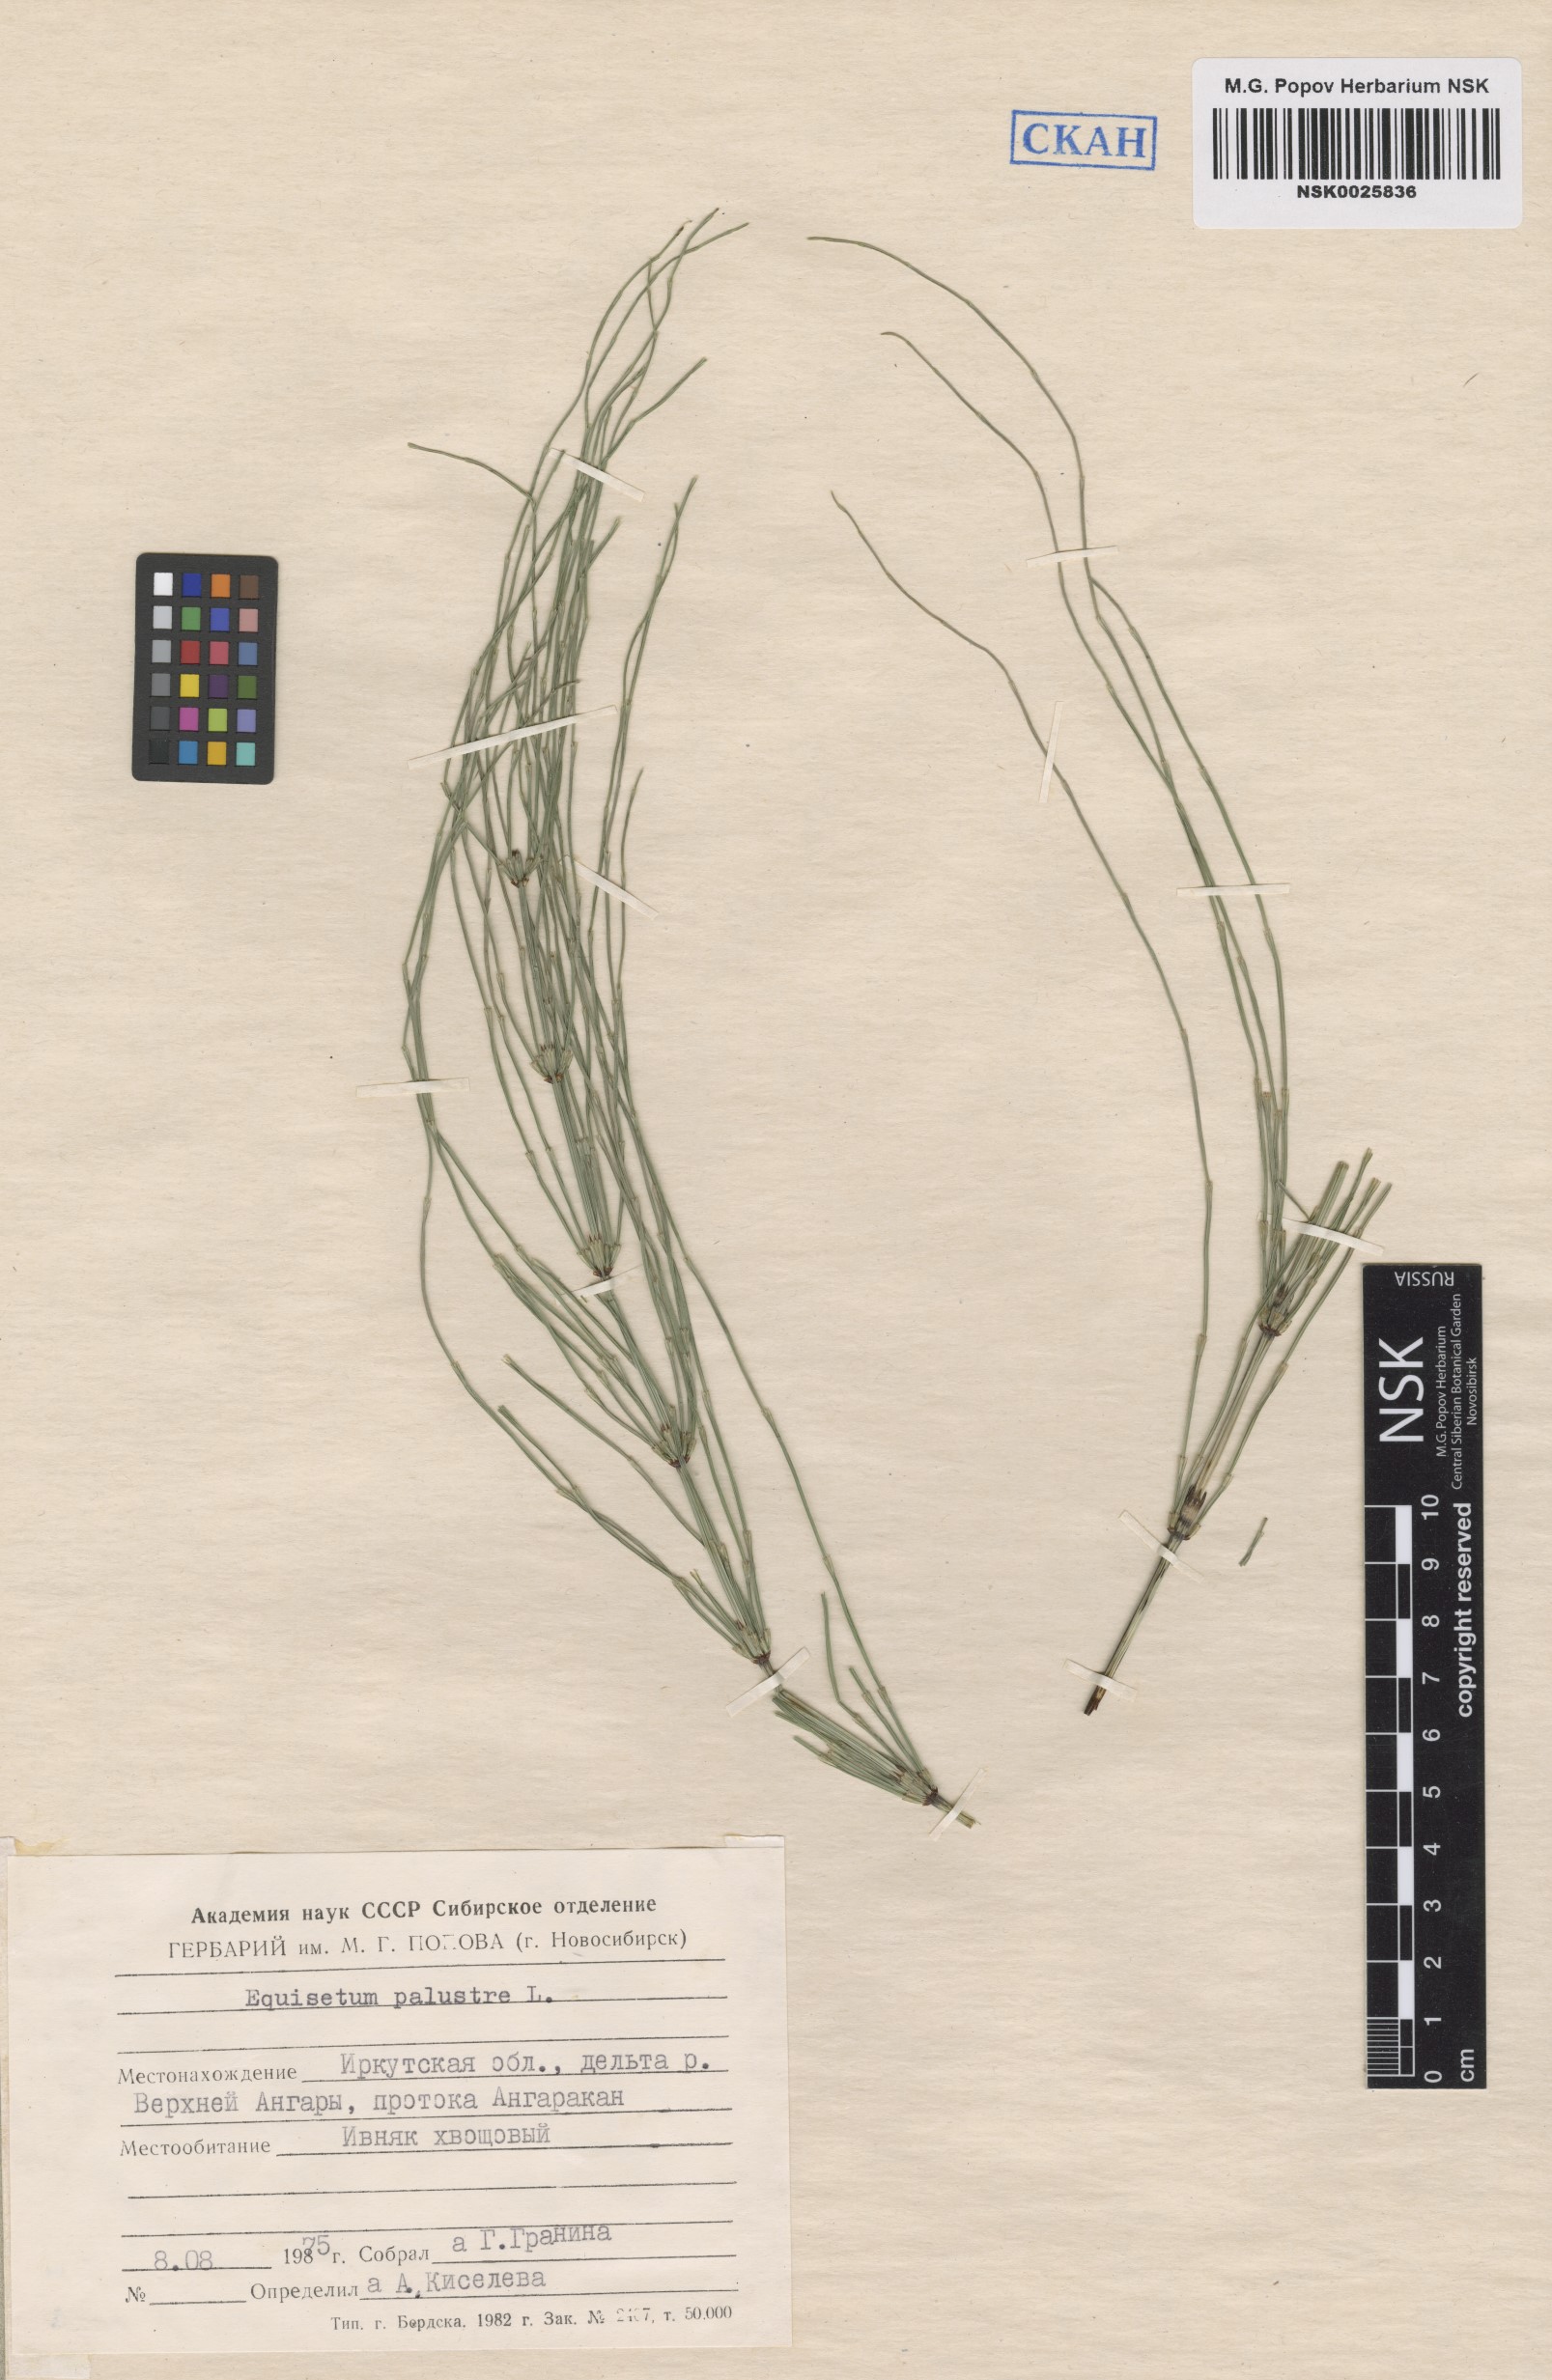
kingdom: Plantae
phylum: Tracheophyta
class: Polypodiopsida
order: Equisetales
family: Equisetaceae
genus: Equisetum
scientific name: Equisetum palustre
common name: Marsh horsetail
